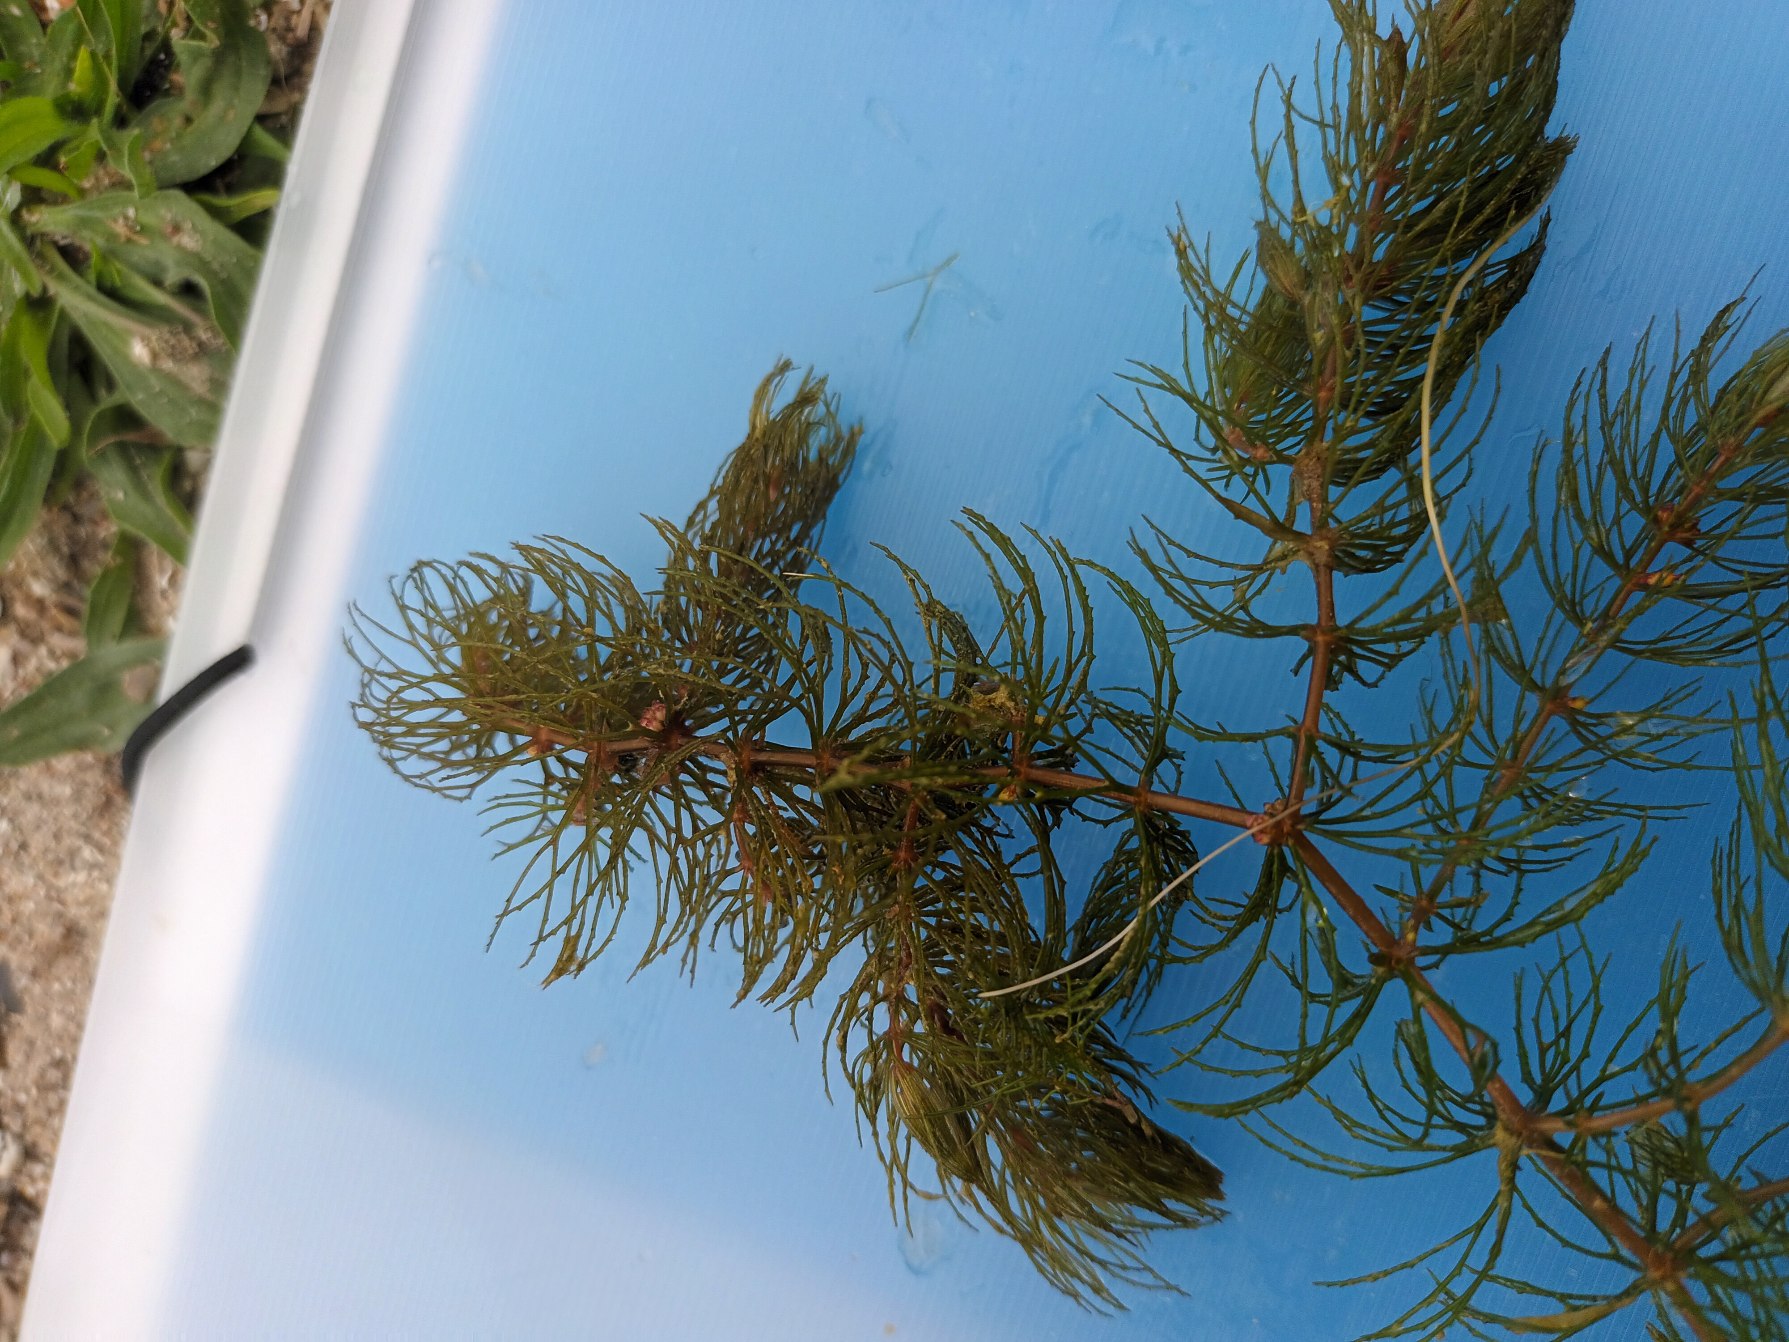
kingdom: Plantae
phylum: Tracheophyta
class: Magnoliopsida
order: Ceratophyllales
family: Ceratophyllaceae
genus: Ceratophyllum
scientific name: Ceratophyllum demersum
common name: Tornfrøet hornblad
